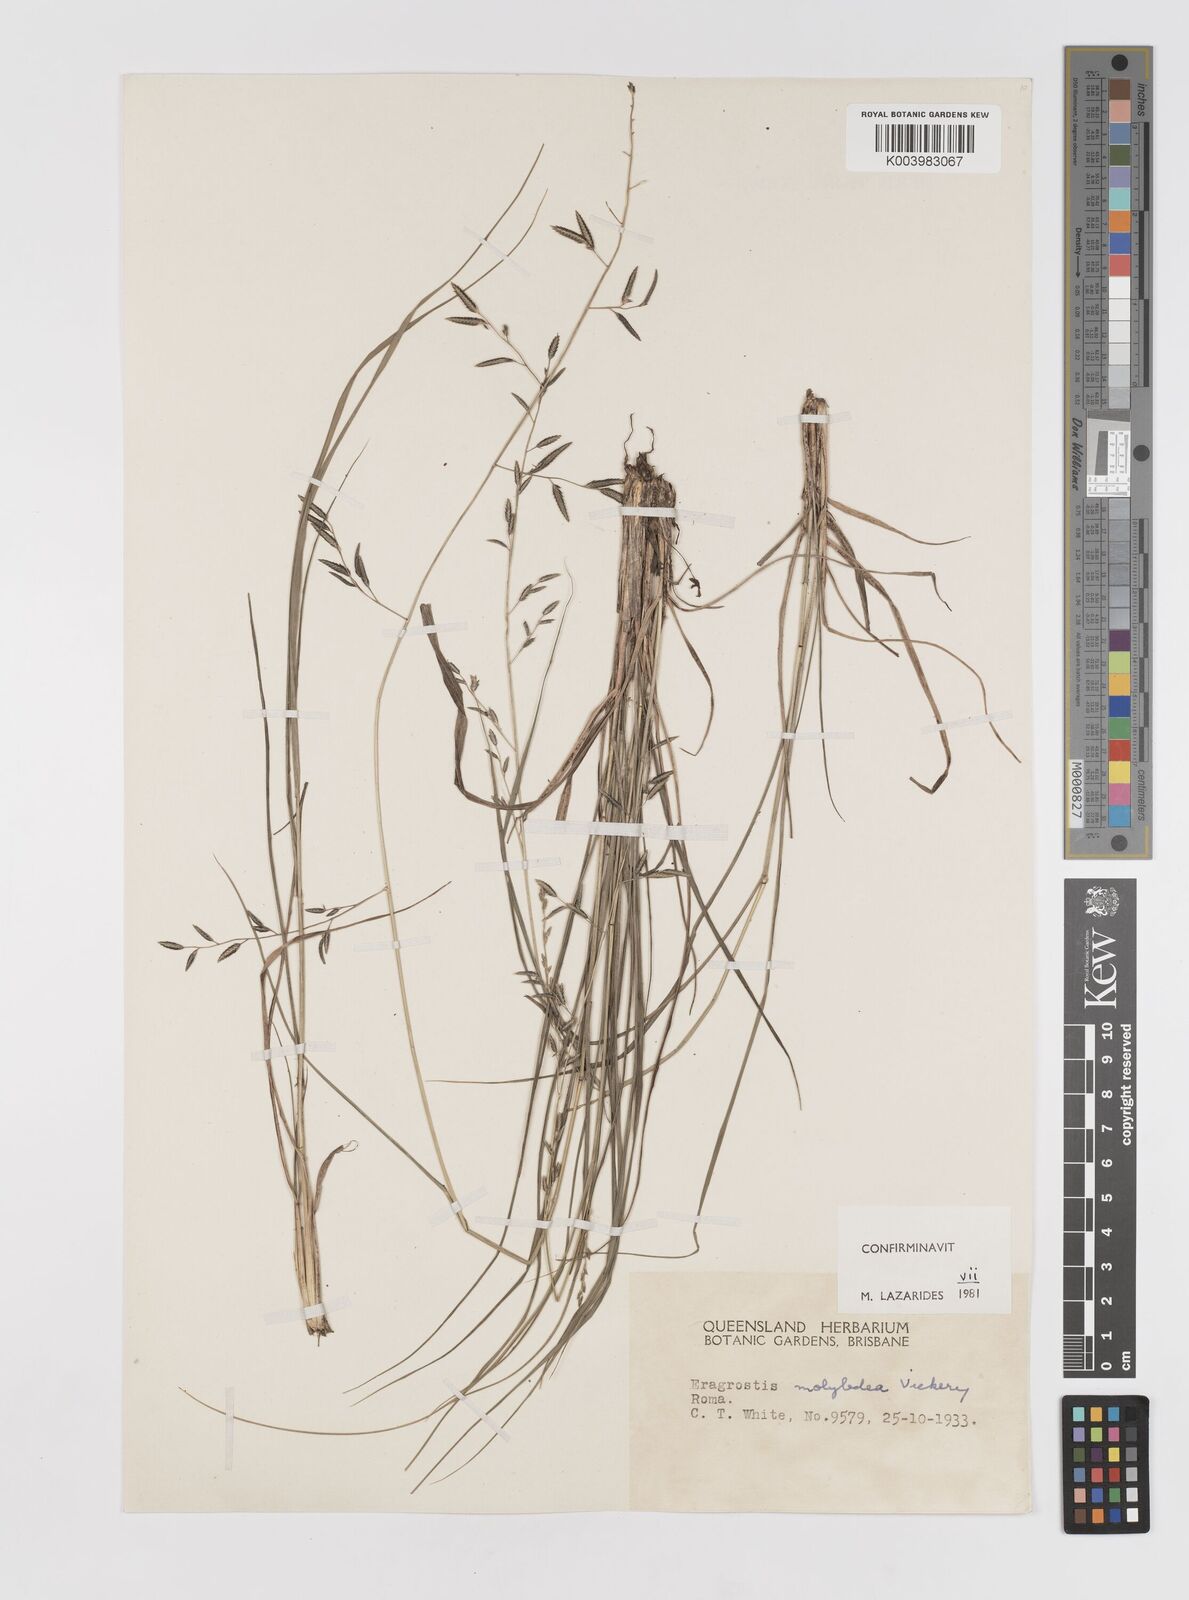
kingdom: Plantae
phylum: Tracheophyta
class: Liliopsida
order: Poales
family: Poaceae
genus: Eragrostis
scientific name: Eragrostis leptostachya
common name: Australian lovegrass
